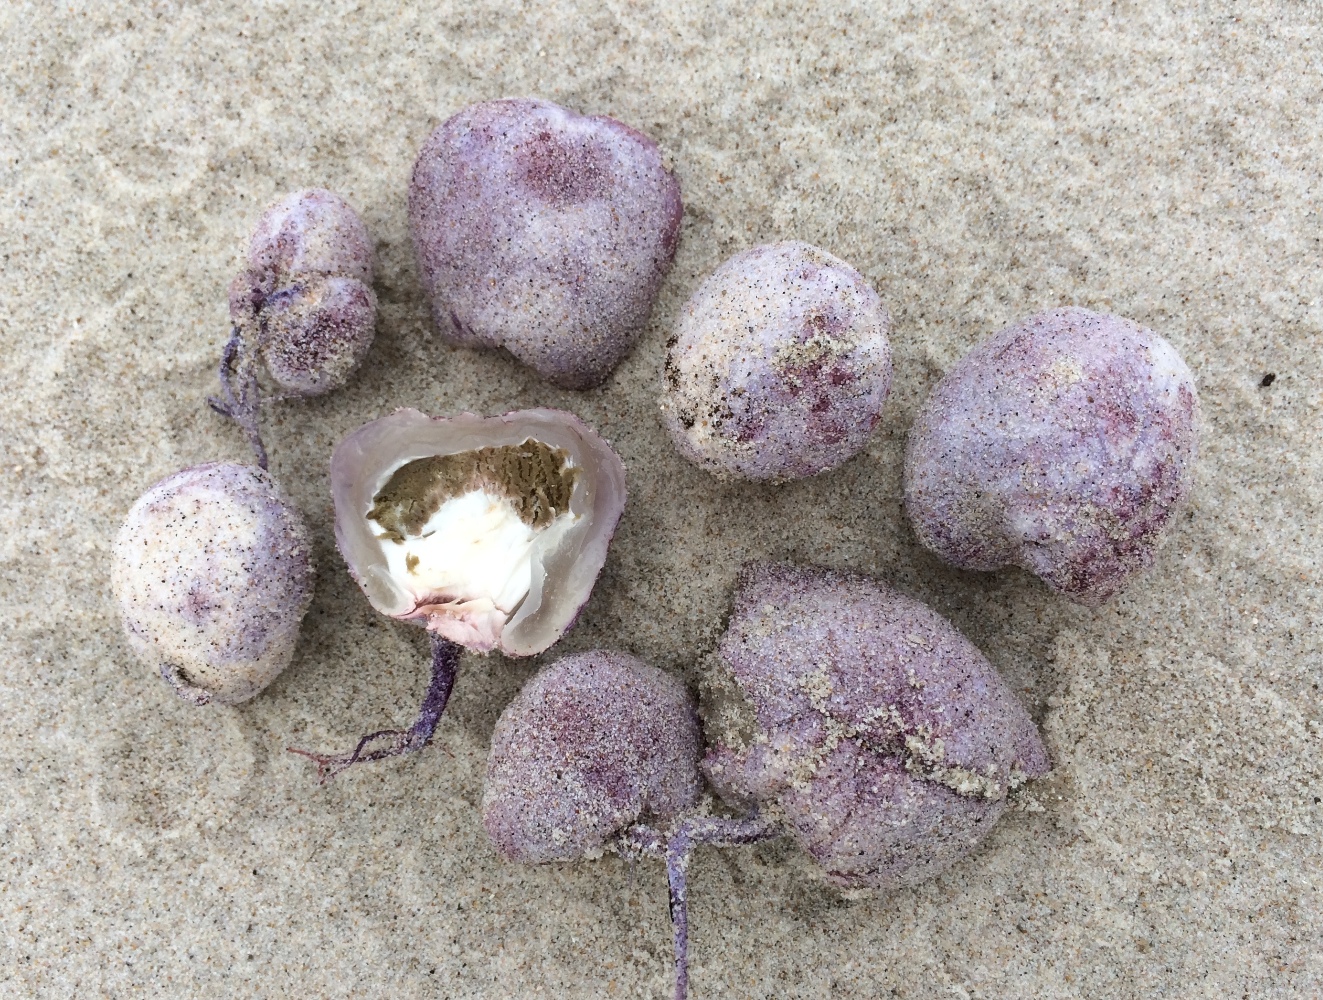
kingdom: Fungi
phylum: Basidiomycota
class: Agaricomycetes
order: Phallales
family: Phallaceae
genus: Phallus
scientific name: Phallus hadriani
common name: sand-stinksvamp
